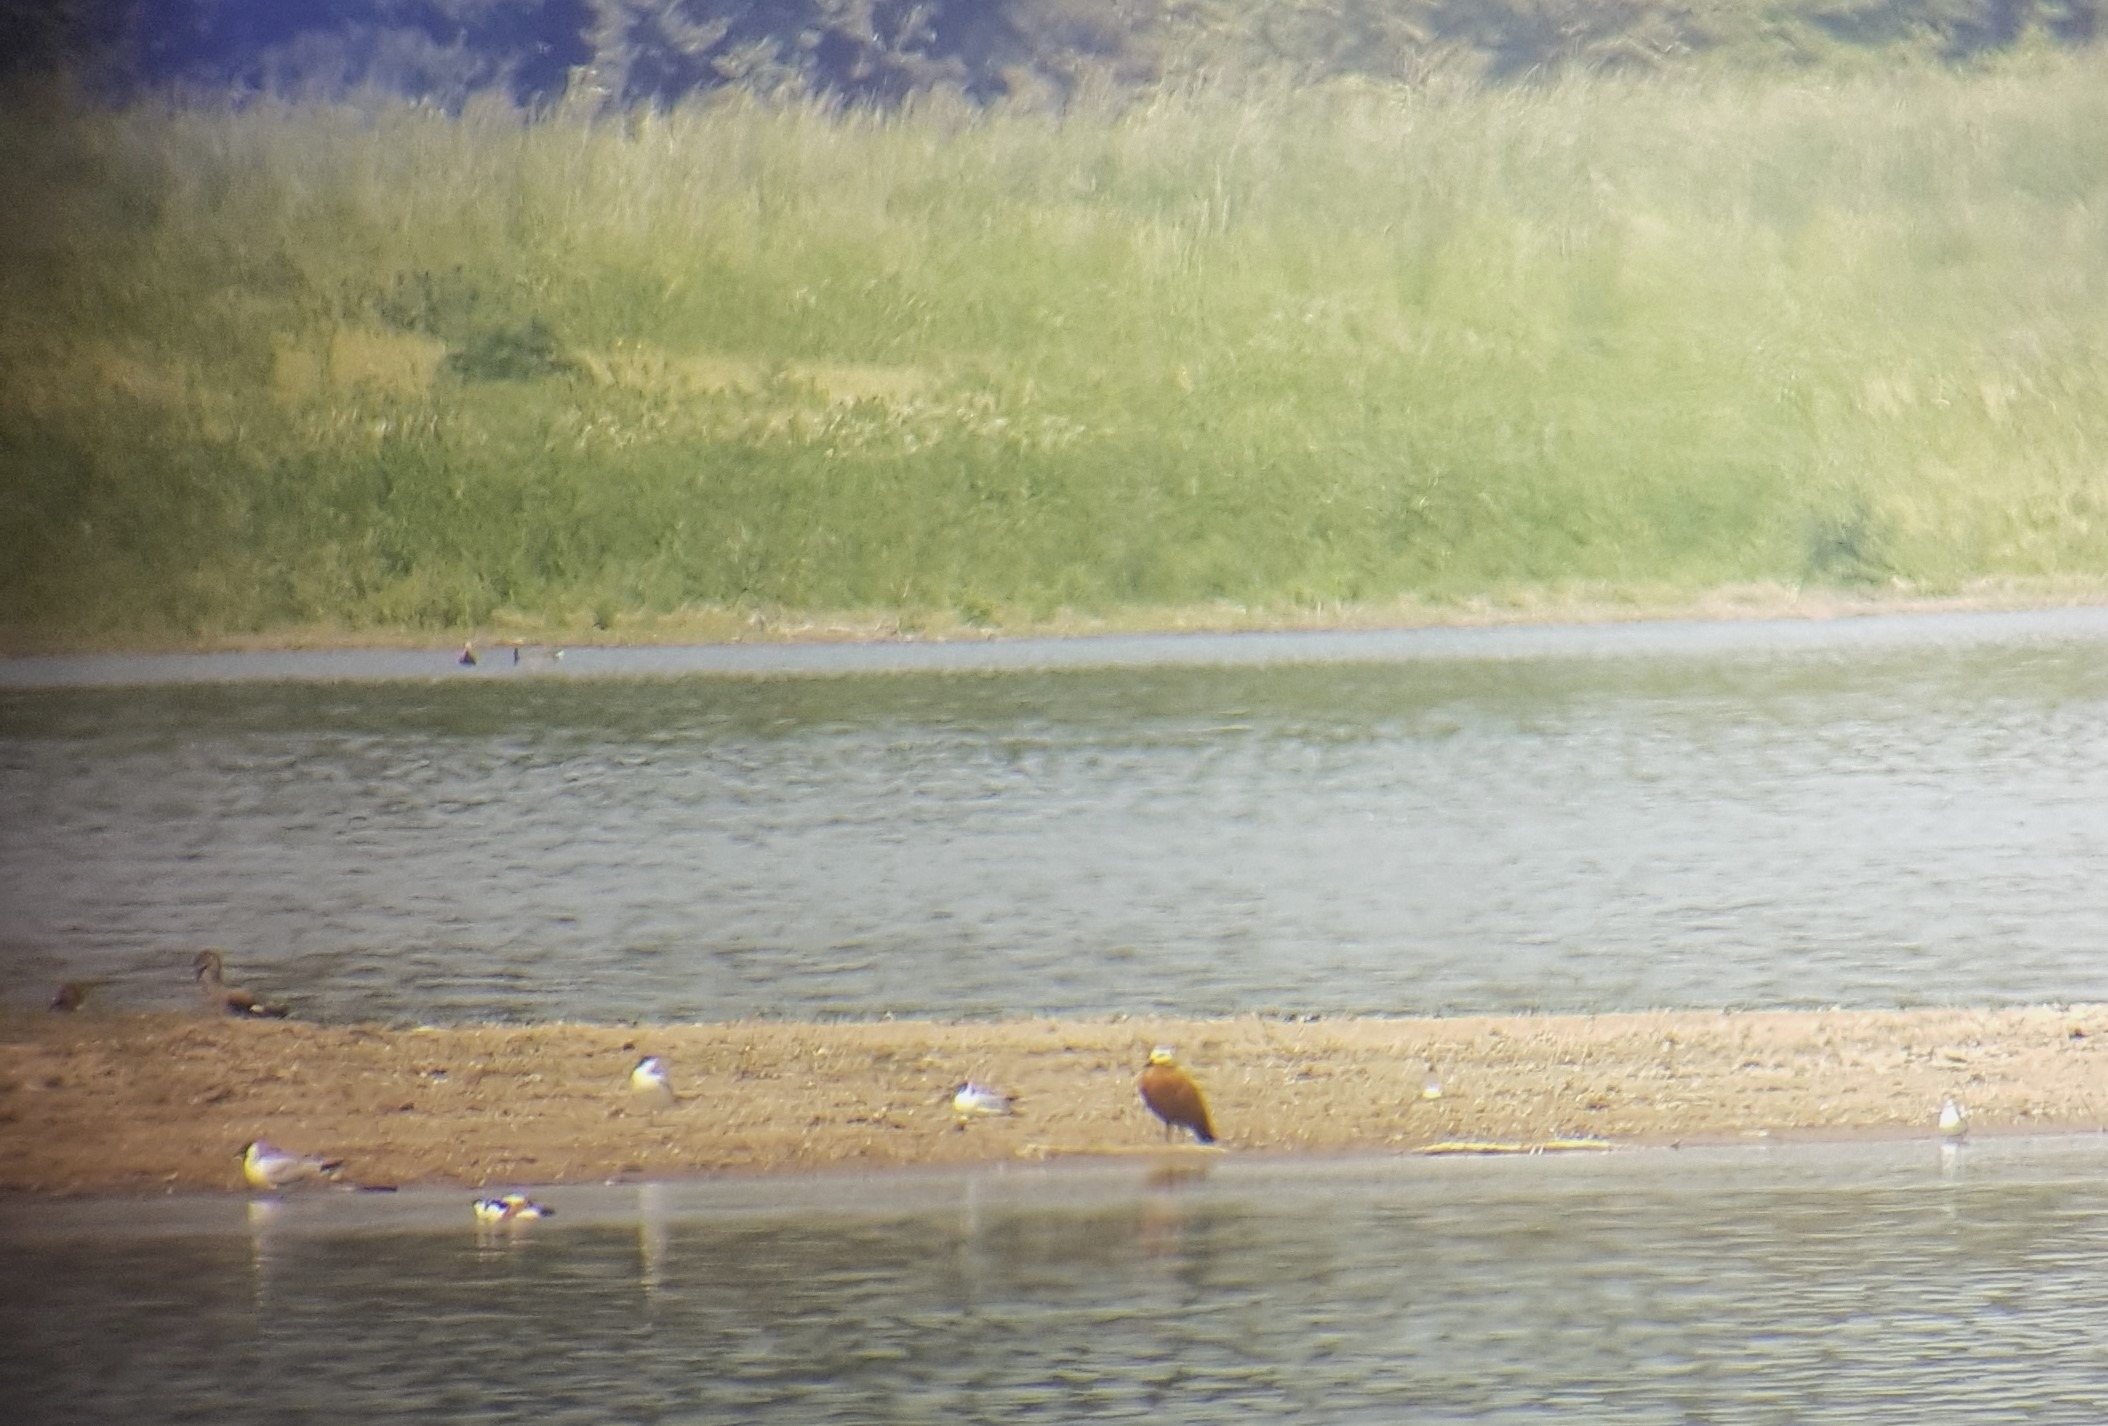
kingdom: Animalia
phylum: Chordata
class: Aves
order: Anseriformes
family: Anatidae
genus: Tadorna
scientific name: Tadorna ferruginea
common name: Rustand
